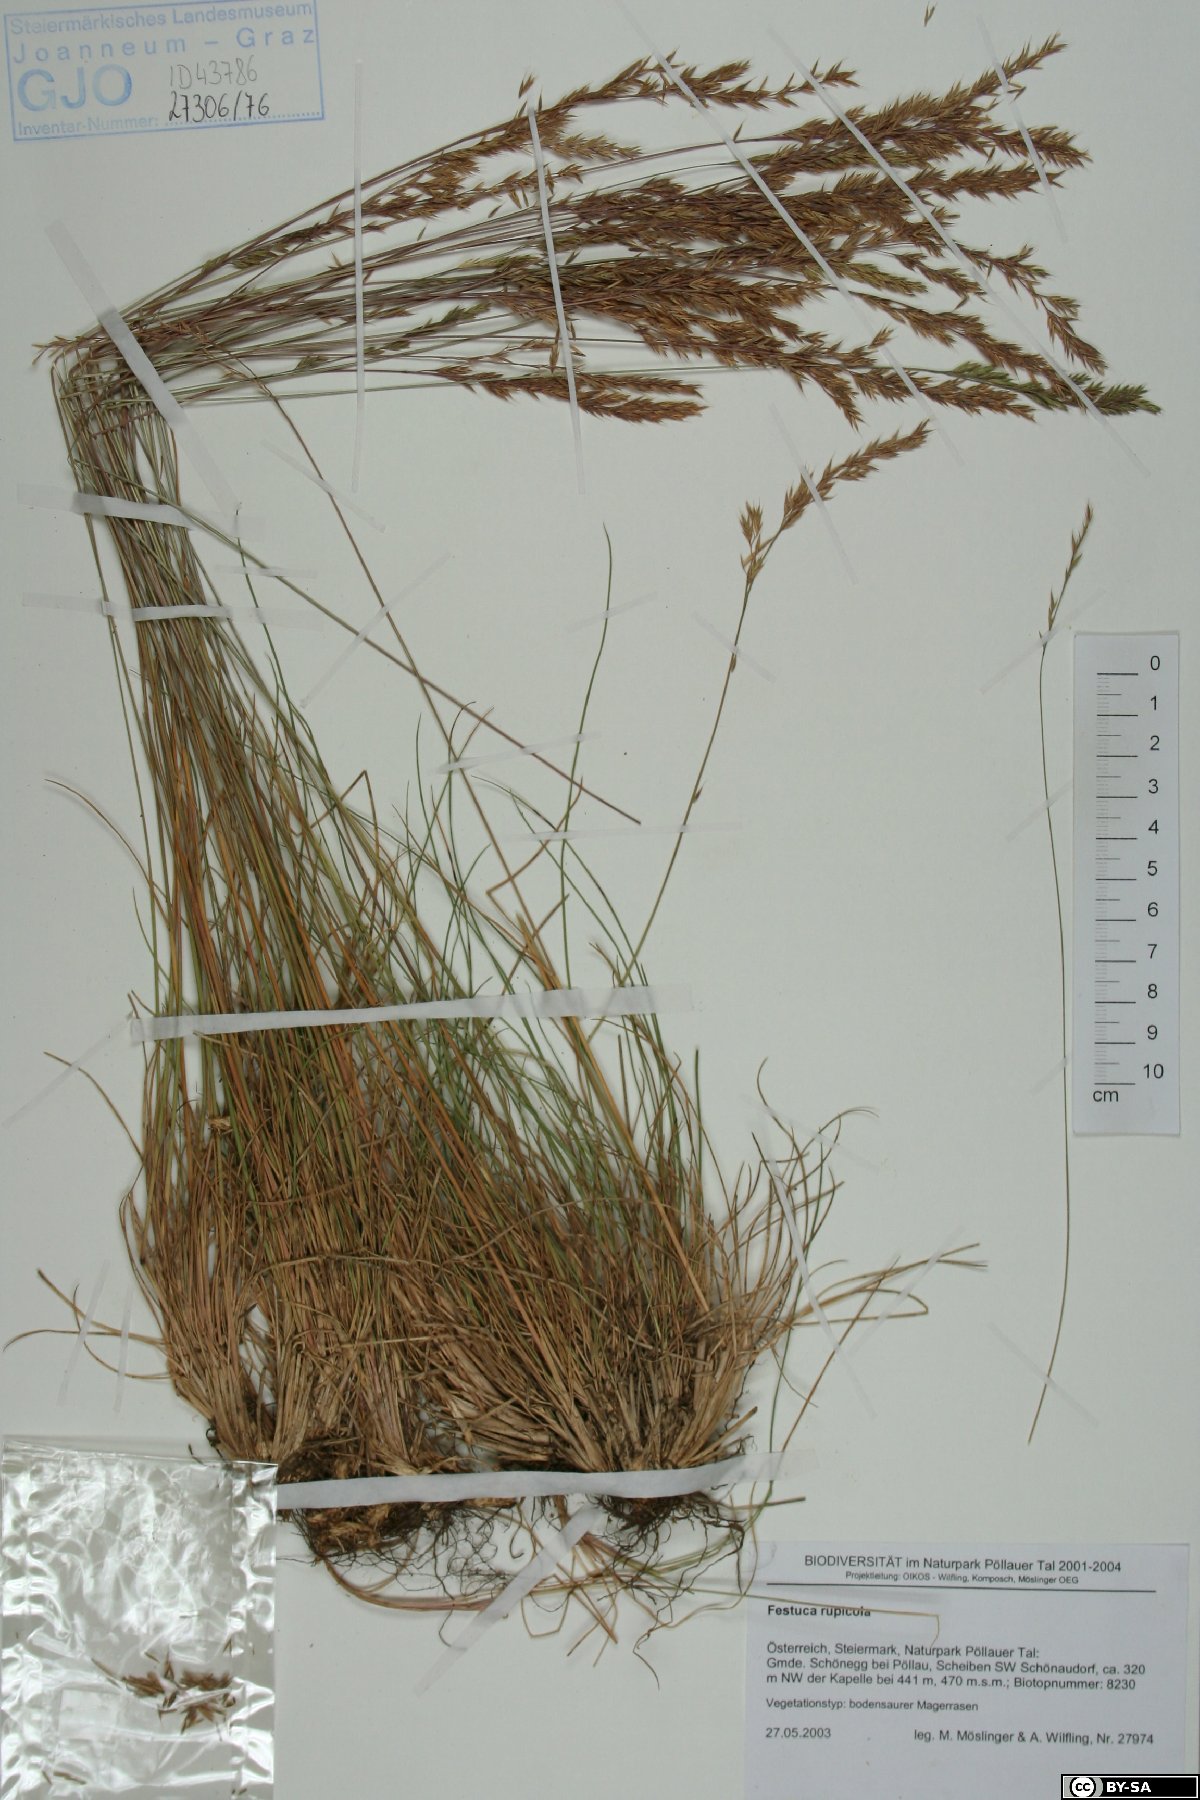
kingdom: Plantae
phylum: Tracheophyta
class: Liliopsida
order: Poales
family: Poaceae
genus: Festuca
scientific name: Festuca rupicola
